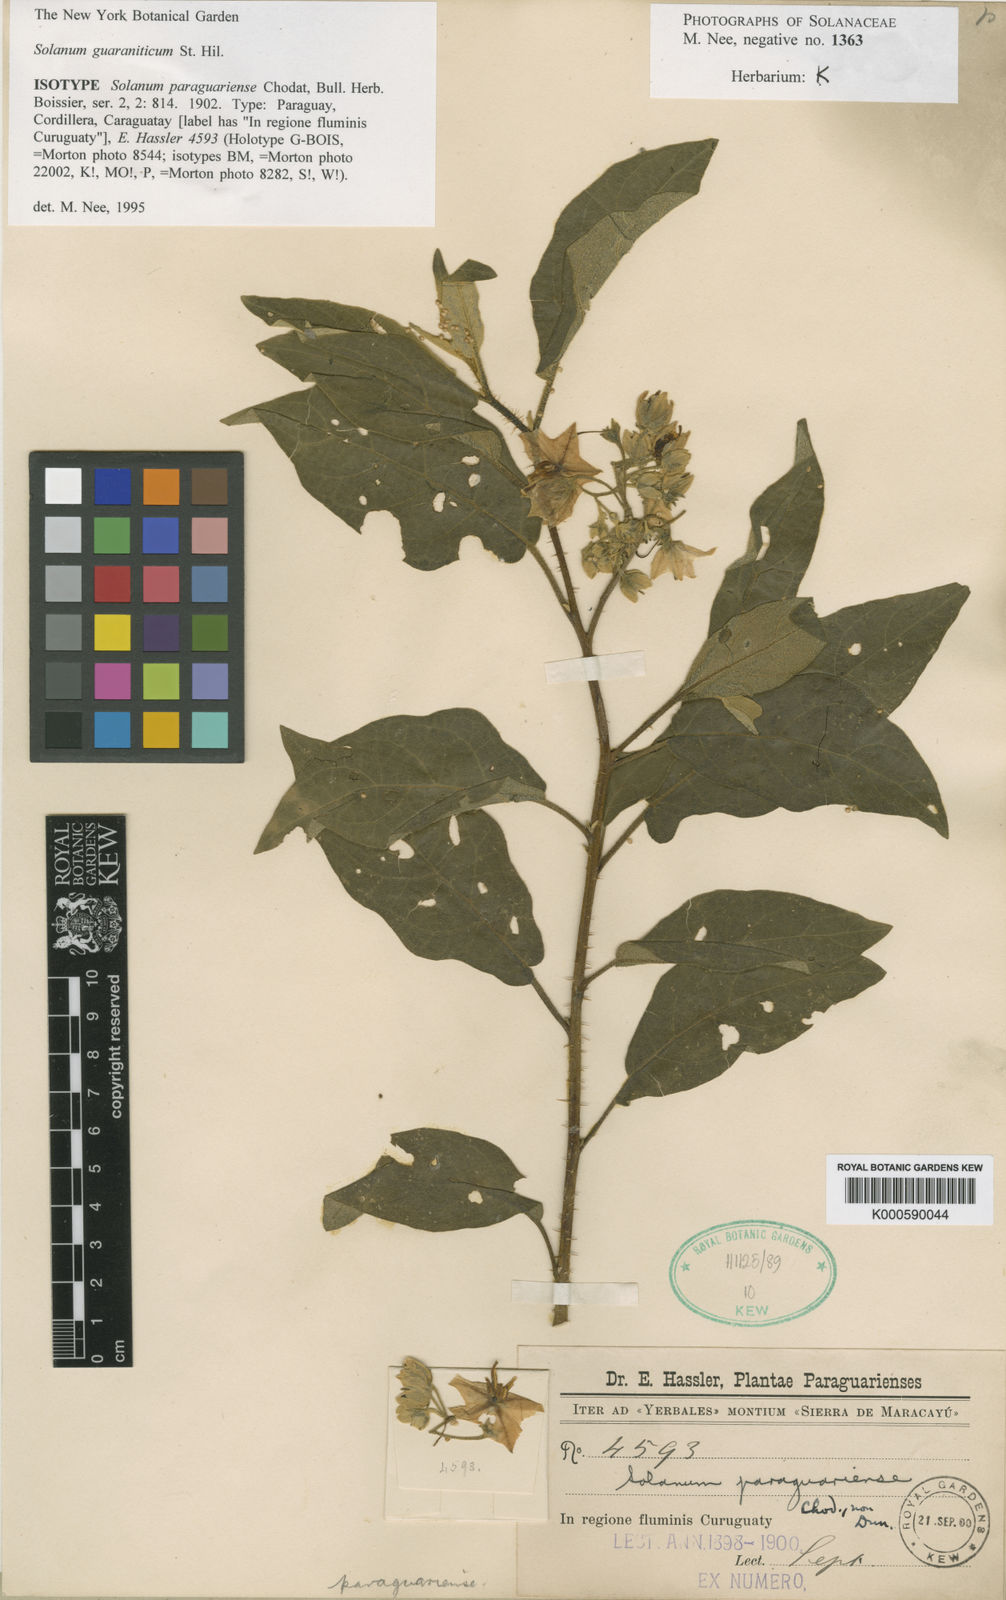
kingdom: Plantae
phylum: Tracheophyta
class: Magnoliopsida
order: Solanales
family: Solanaceae
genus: Solanum
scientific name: Solanum guaraniticum
